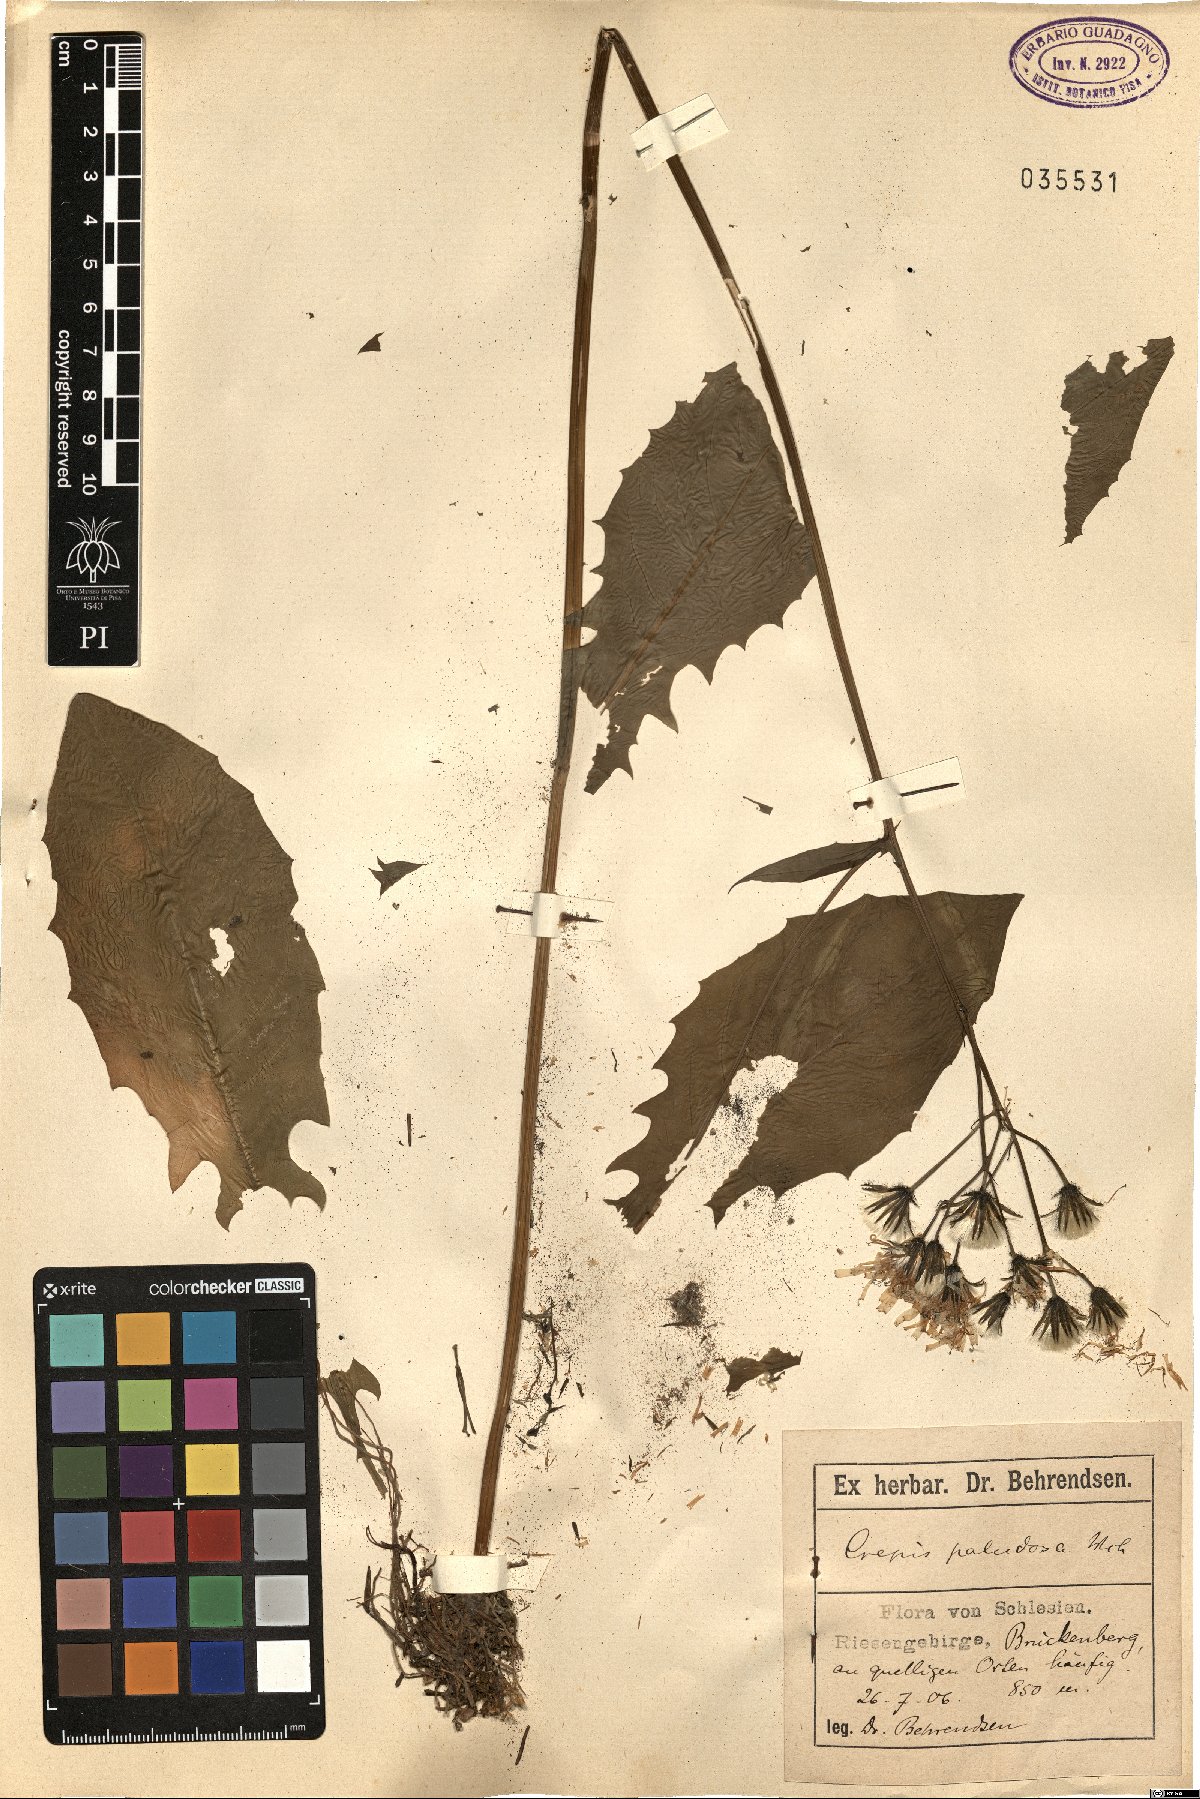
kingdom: Plantae
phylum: Tracheophyta
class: Magnoliopsida
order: Asterales
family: Asteraceae
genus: Crepis
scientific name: Crepis paludosa
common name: Marsh hawk's-beard
